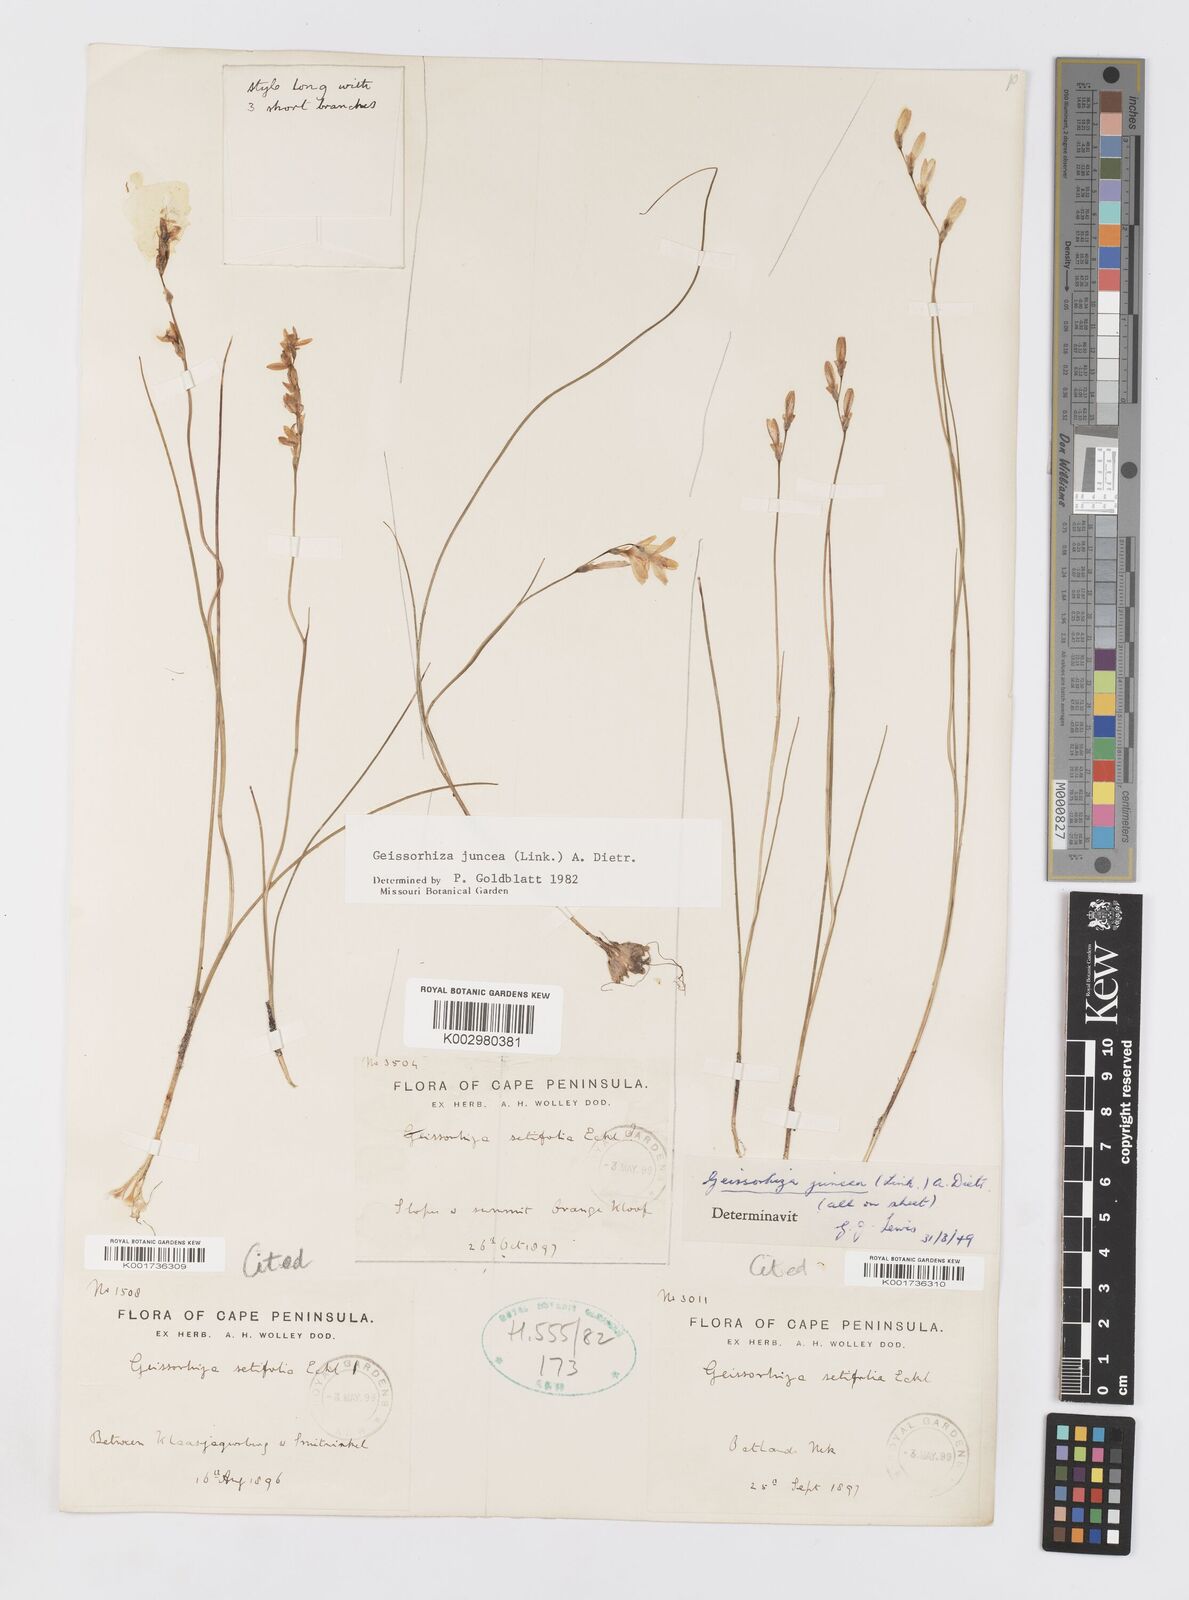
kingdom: Plantae
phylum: Tracheophyta
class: Liliopsida
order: Asparagales
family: Iridaceae
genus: Geissorhiza
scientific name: Geissorhiza juncea
